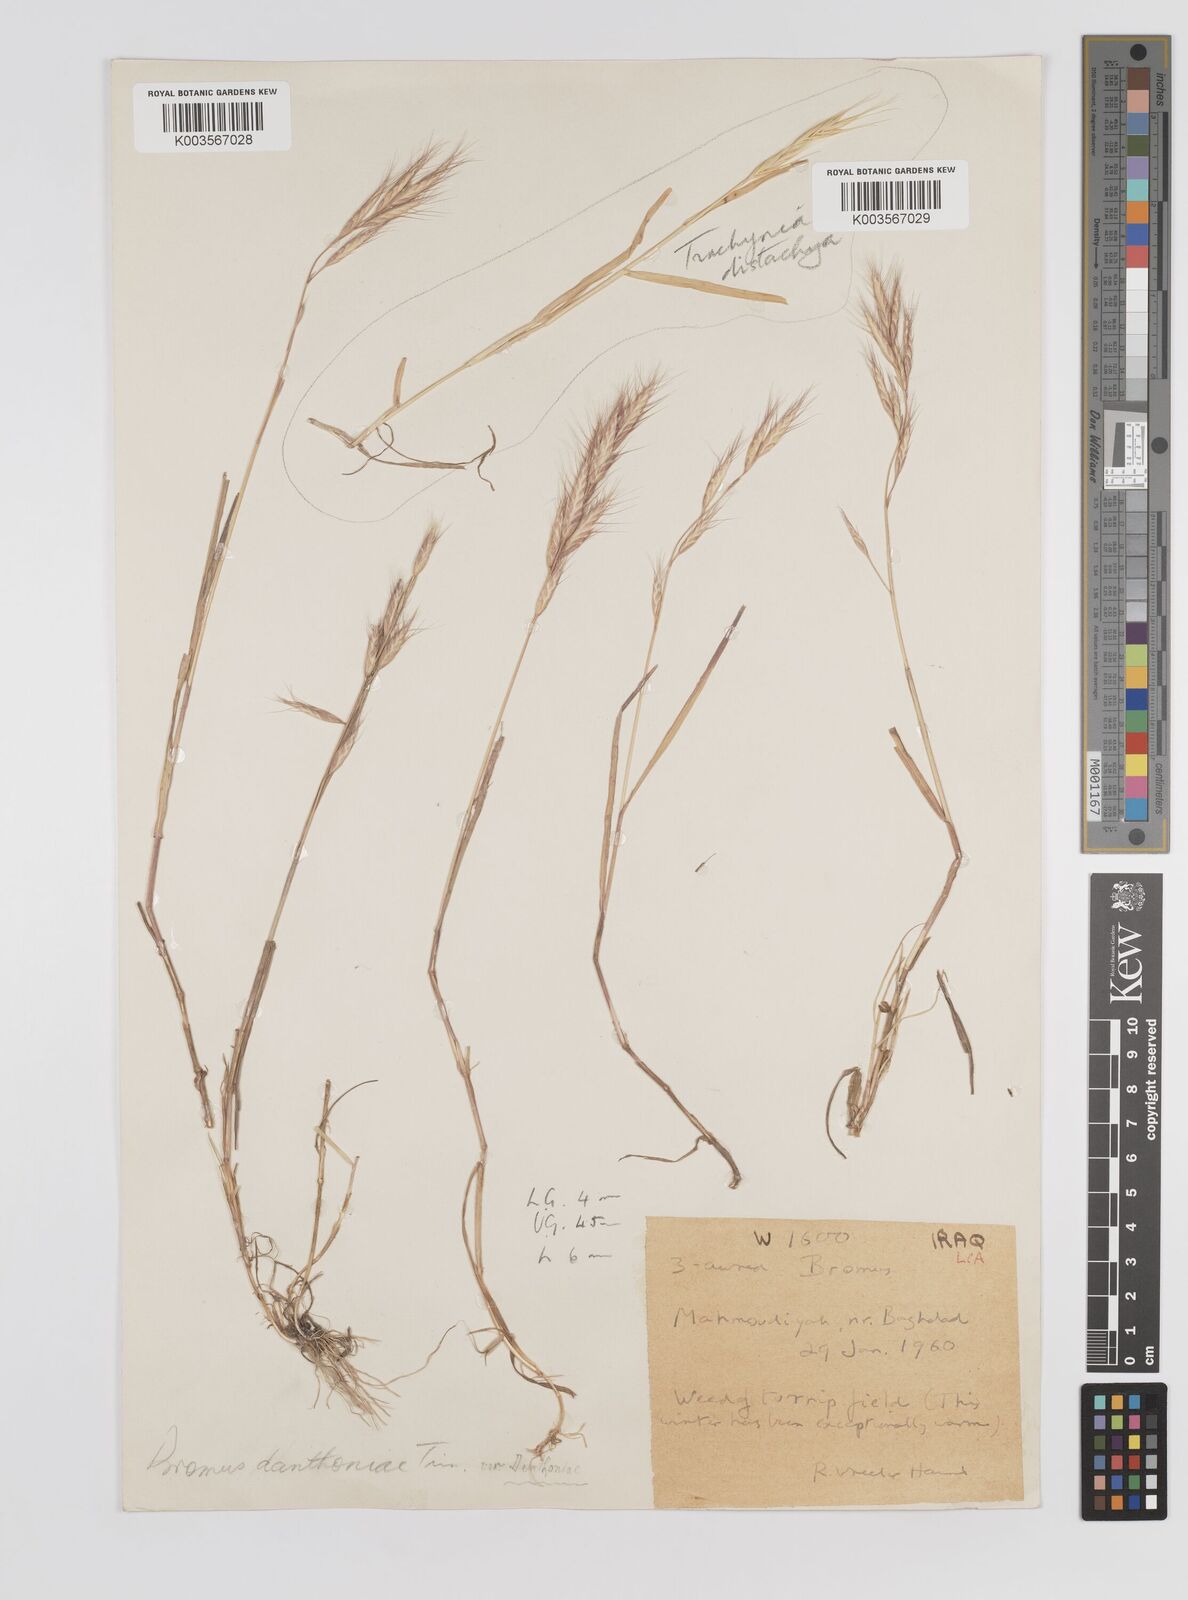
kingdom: Plantae
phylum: Tracheophyta
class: Liliopsida
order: Poales
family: Poaceae
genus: Bromus
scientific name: Bromus danthoniae
